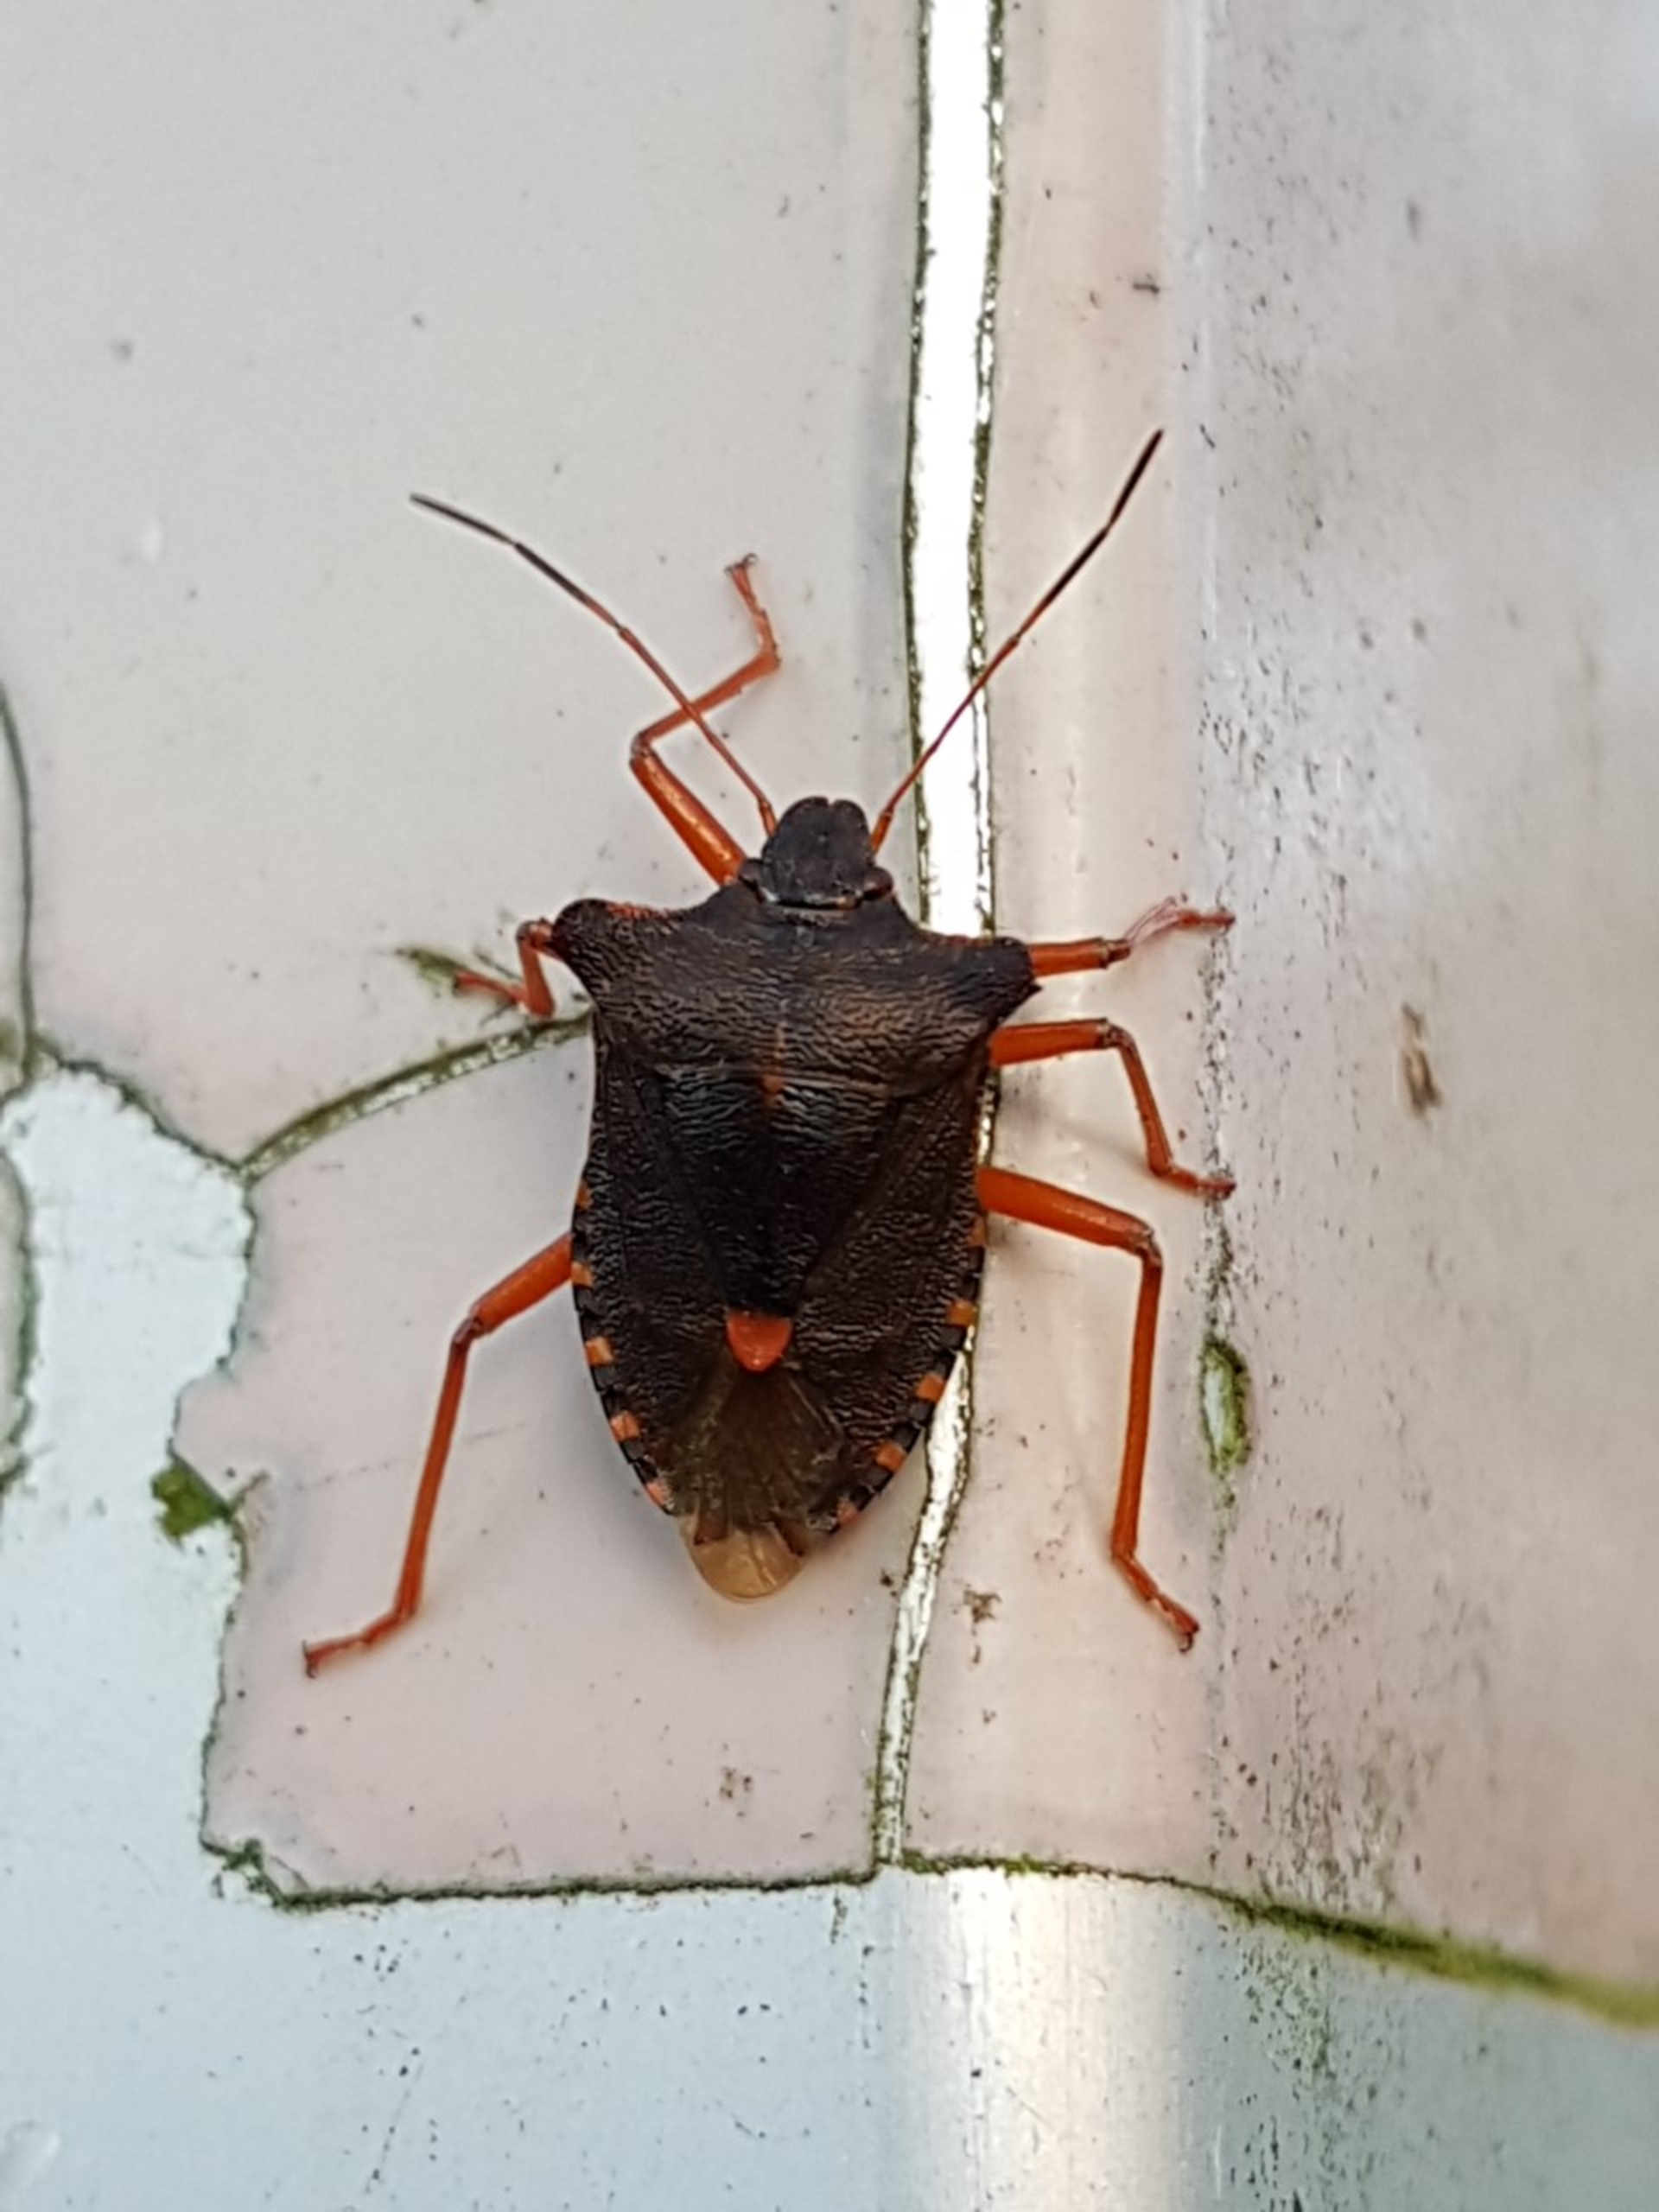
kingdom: Animalia
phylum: Arthropoda
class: Insecta
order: Hemiptera
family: Pentatomidae
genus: Pentatoma
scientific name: Pentatoma rufipes
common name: Rødbenet bredtæge
